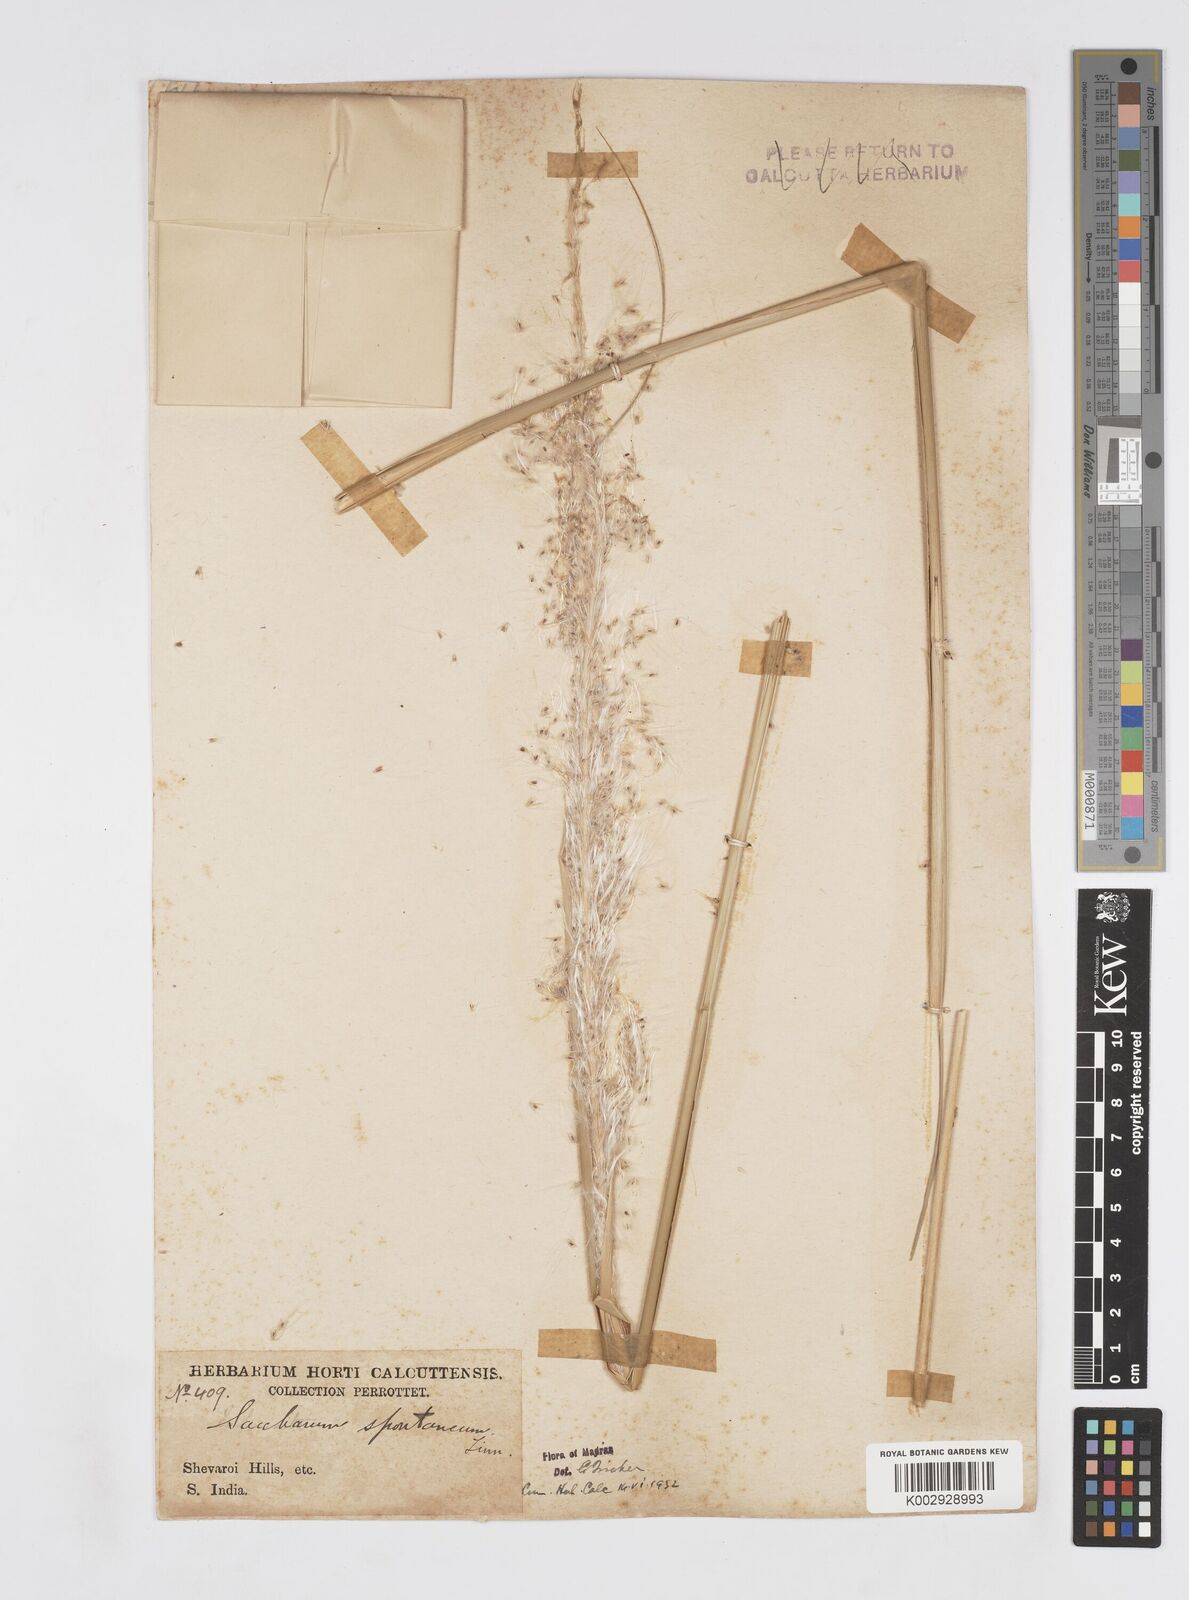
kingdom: Plantae
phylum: Tracheophyta
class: Liliopsida
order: Poales
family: Poaceae
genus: Saccharum
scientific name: Saccharum spontaneum
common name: Wild sugarcane
